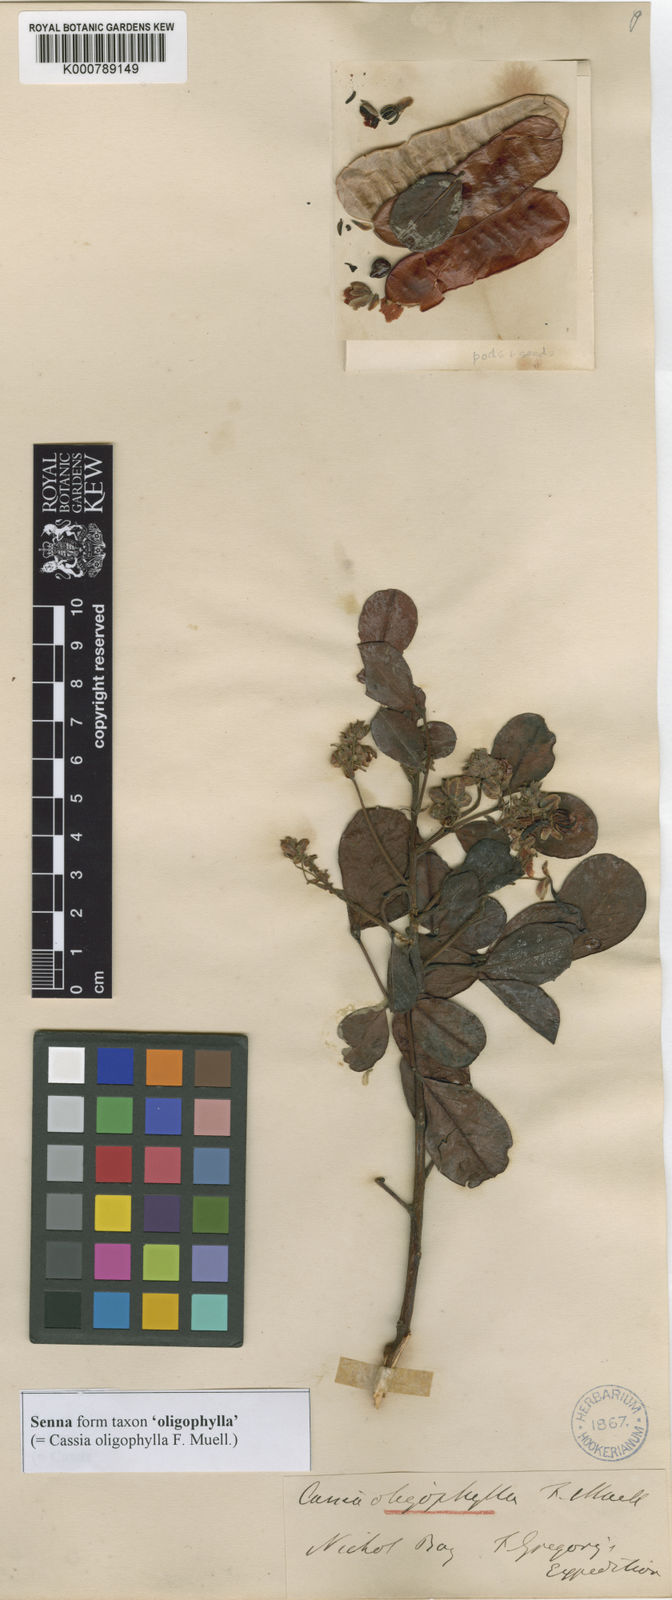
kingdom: Plantae
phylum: Tracheophyta
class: Magnoliopsida
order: Fabales
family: Fabaceae
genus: Senna
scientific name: Senna
